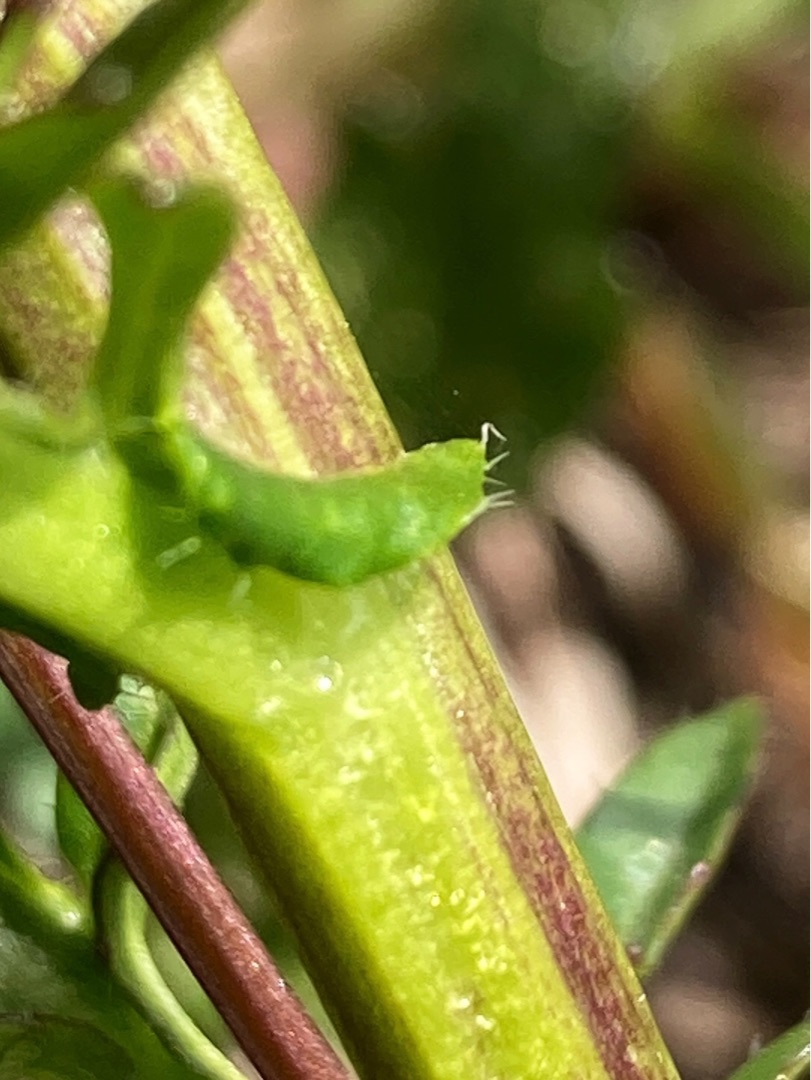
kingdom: Plantae
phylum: Tracheophyta
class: Magnoliopsida
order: Brassicales
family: Brassicaceae
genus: Barbarea
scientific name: Barbarea intermedia
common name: Randhåret vinterkarse
